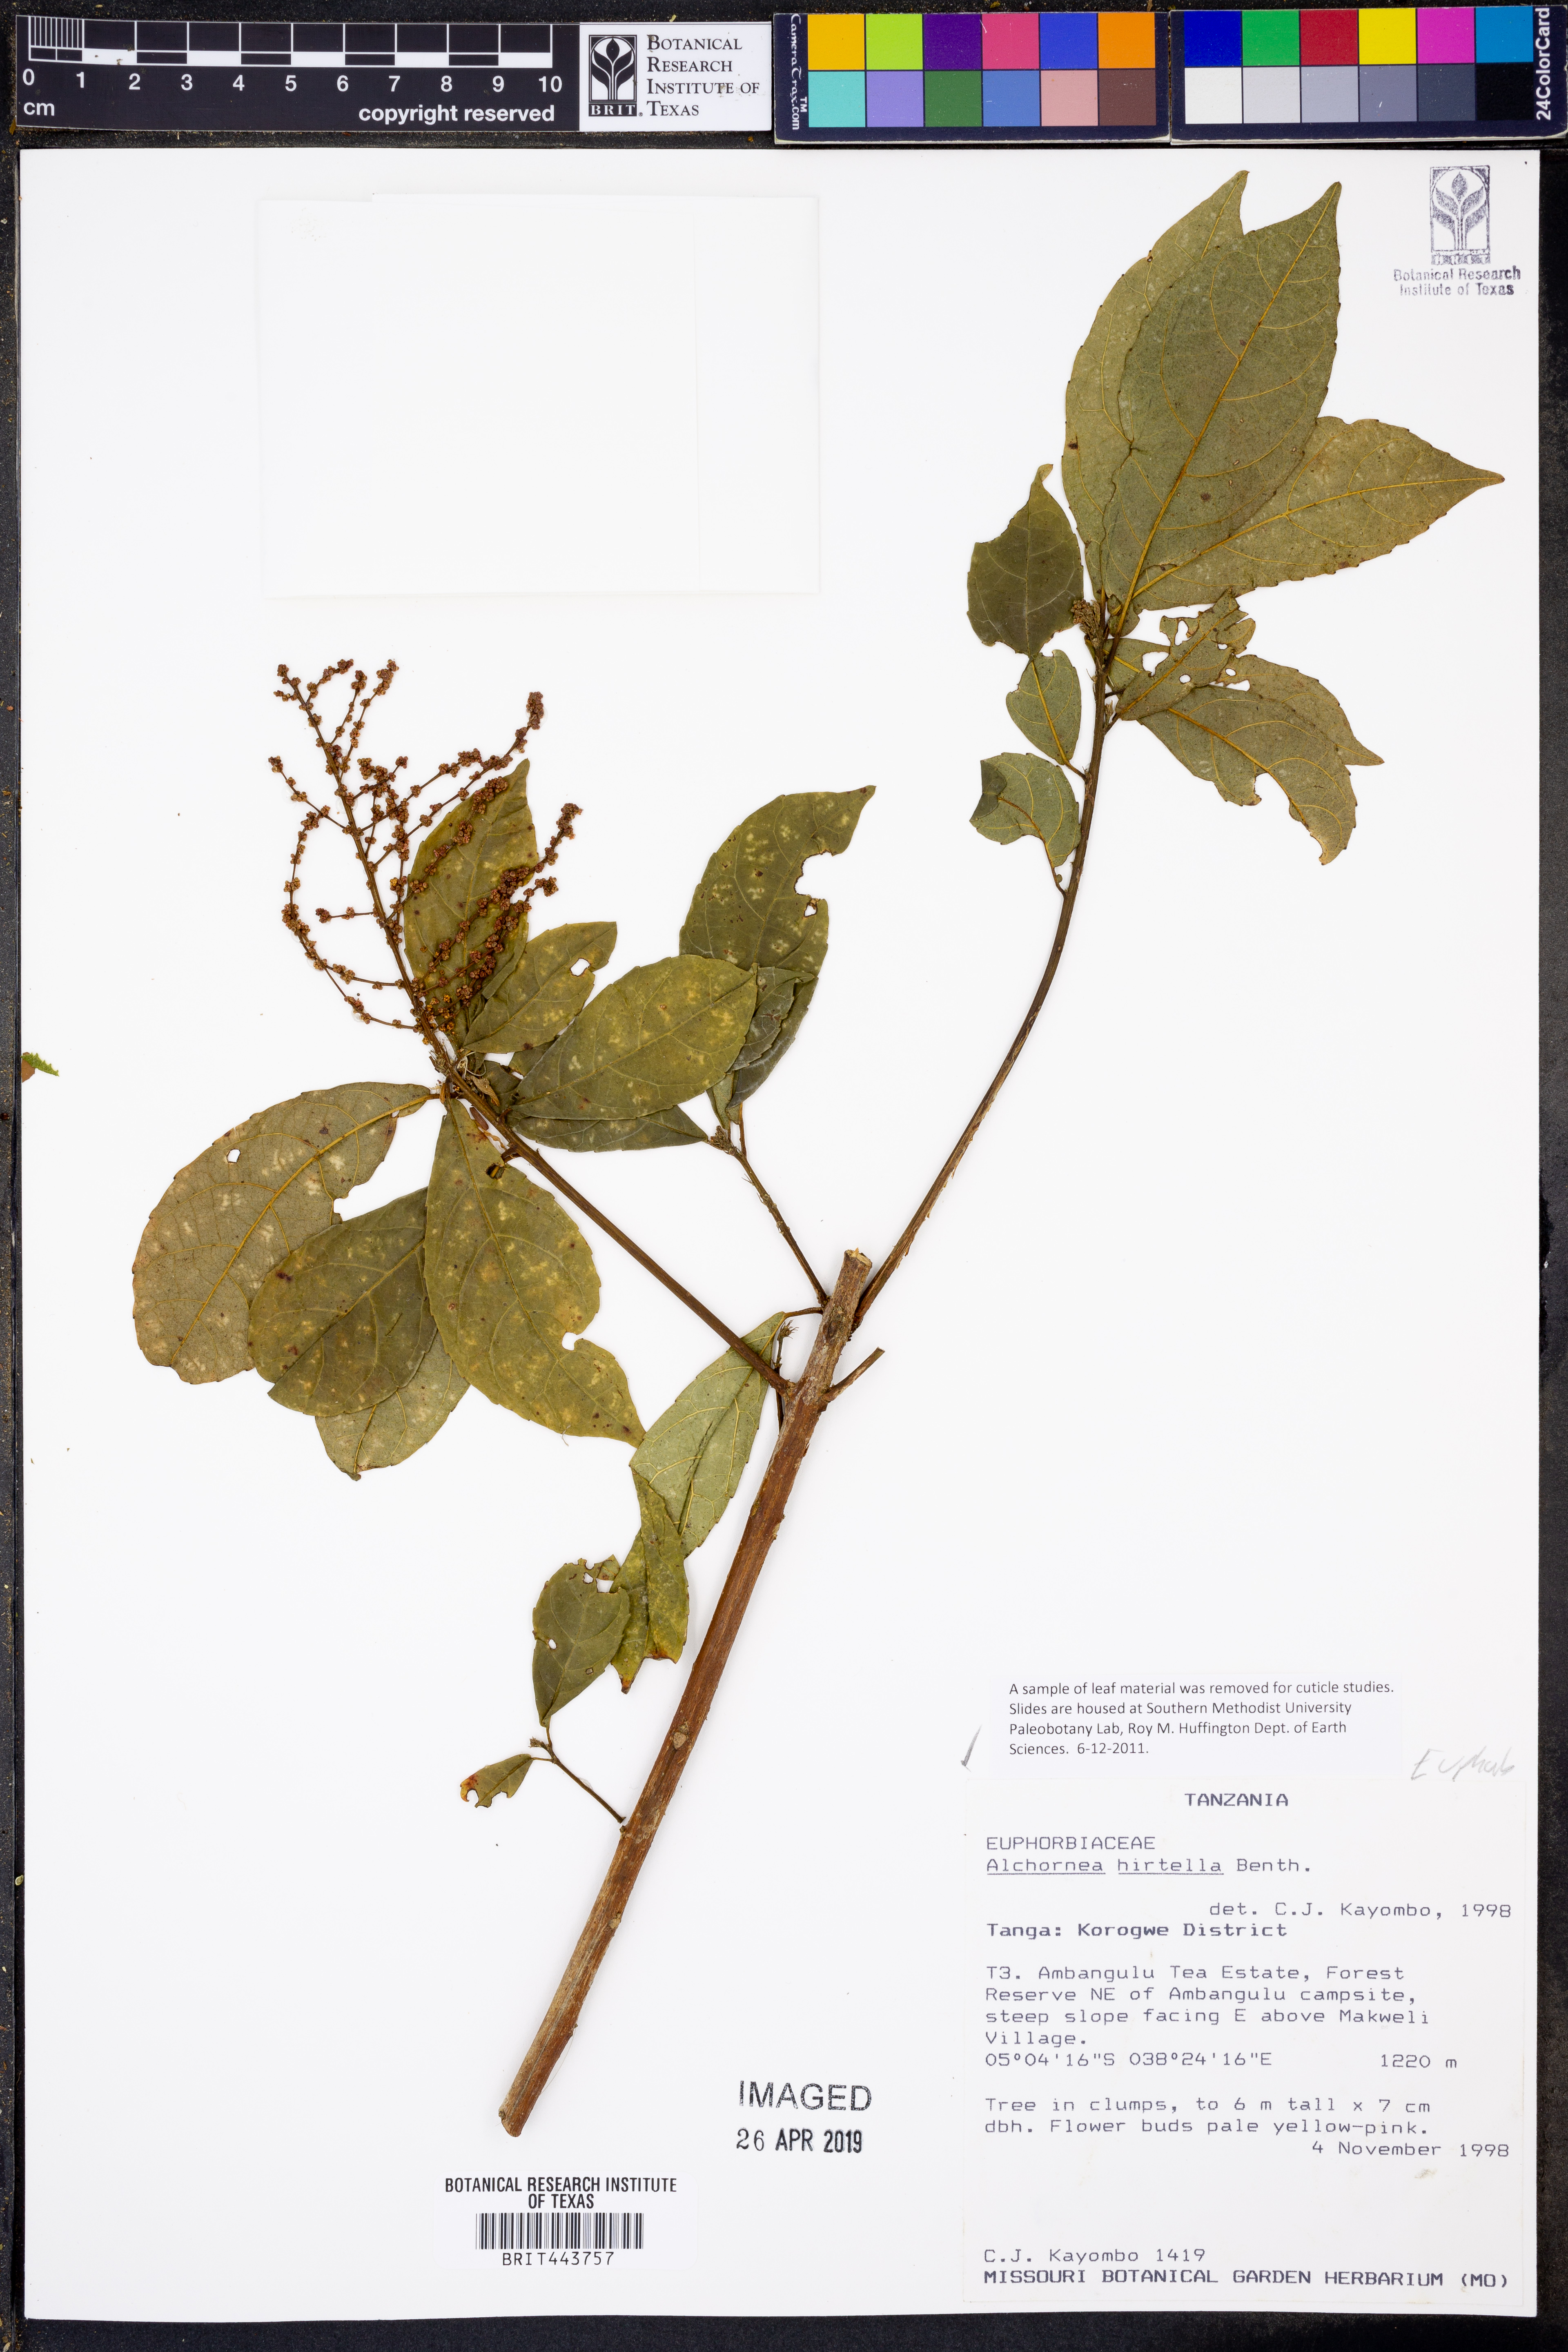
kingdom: Plantae
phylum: Tracheophyta
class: Magnoliopsida
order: Malpighiales
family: Euphorbiaceae
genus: Alchornea
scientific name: Alchornea hirtella
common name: Forest bead-string
